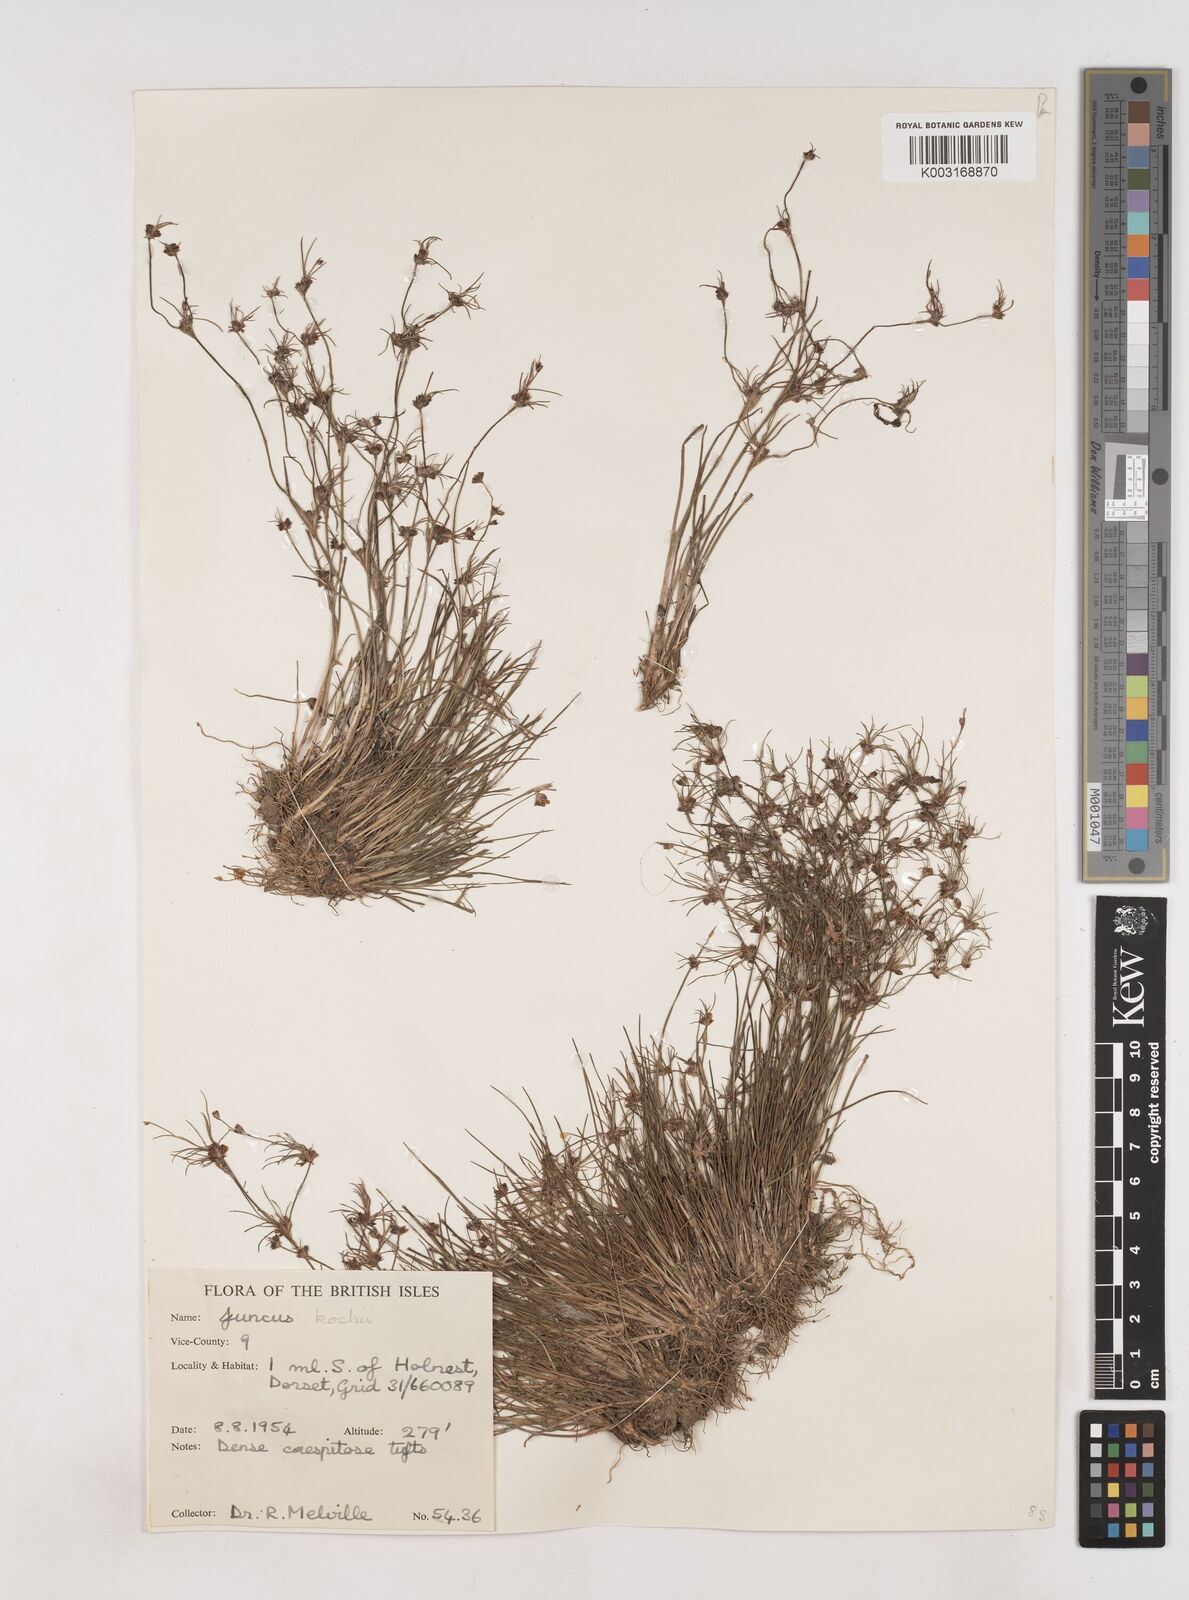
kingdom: Plantae
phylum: Tracheophyta
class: Liliopsida
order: Poales
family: Juncaceae
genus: Juncus
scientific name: Juncus bulbosus
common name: Bulbous rush
